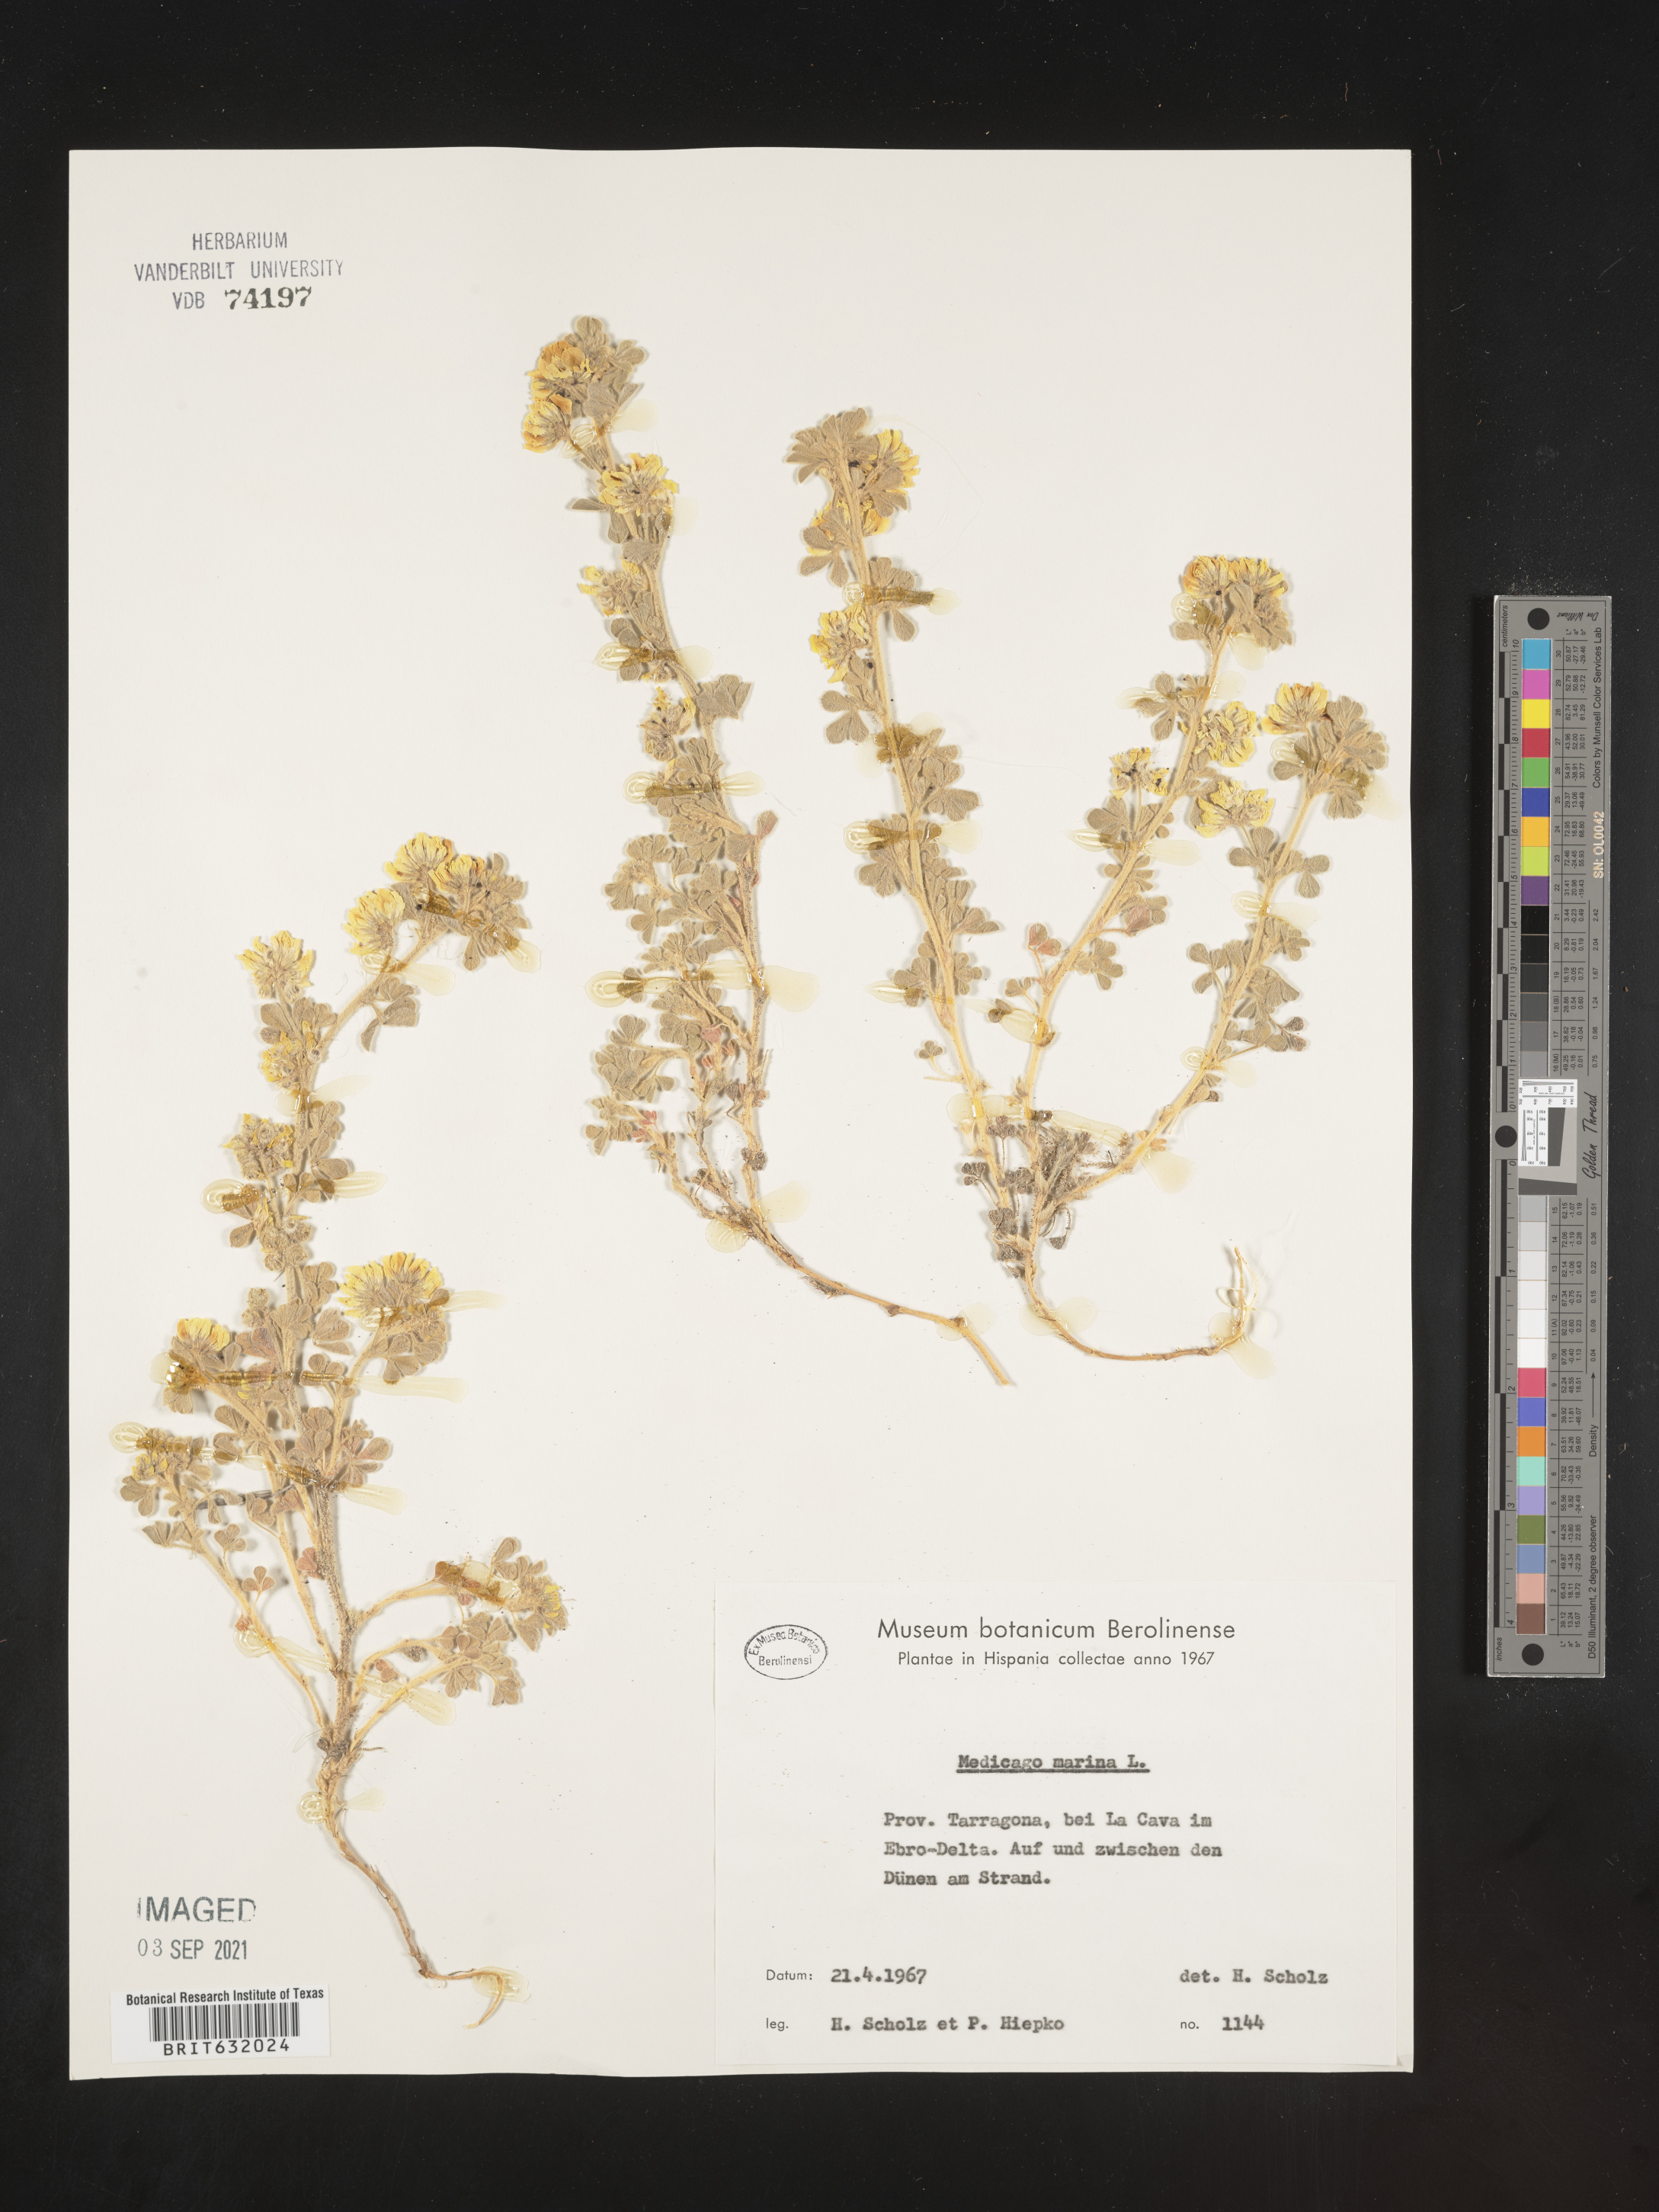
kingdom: Plantae
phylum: Tracheophyta
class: Magnoliopsida
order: Fabales
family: Fabaceae
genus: Medicago
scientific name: Medicago
